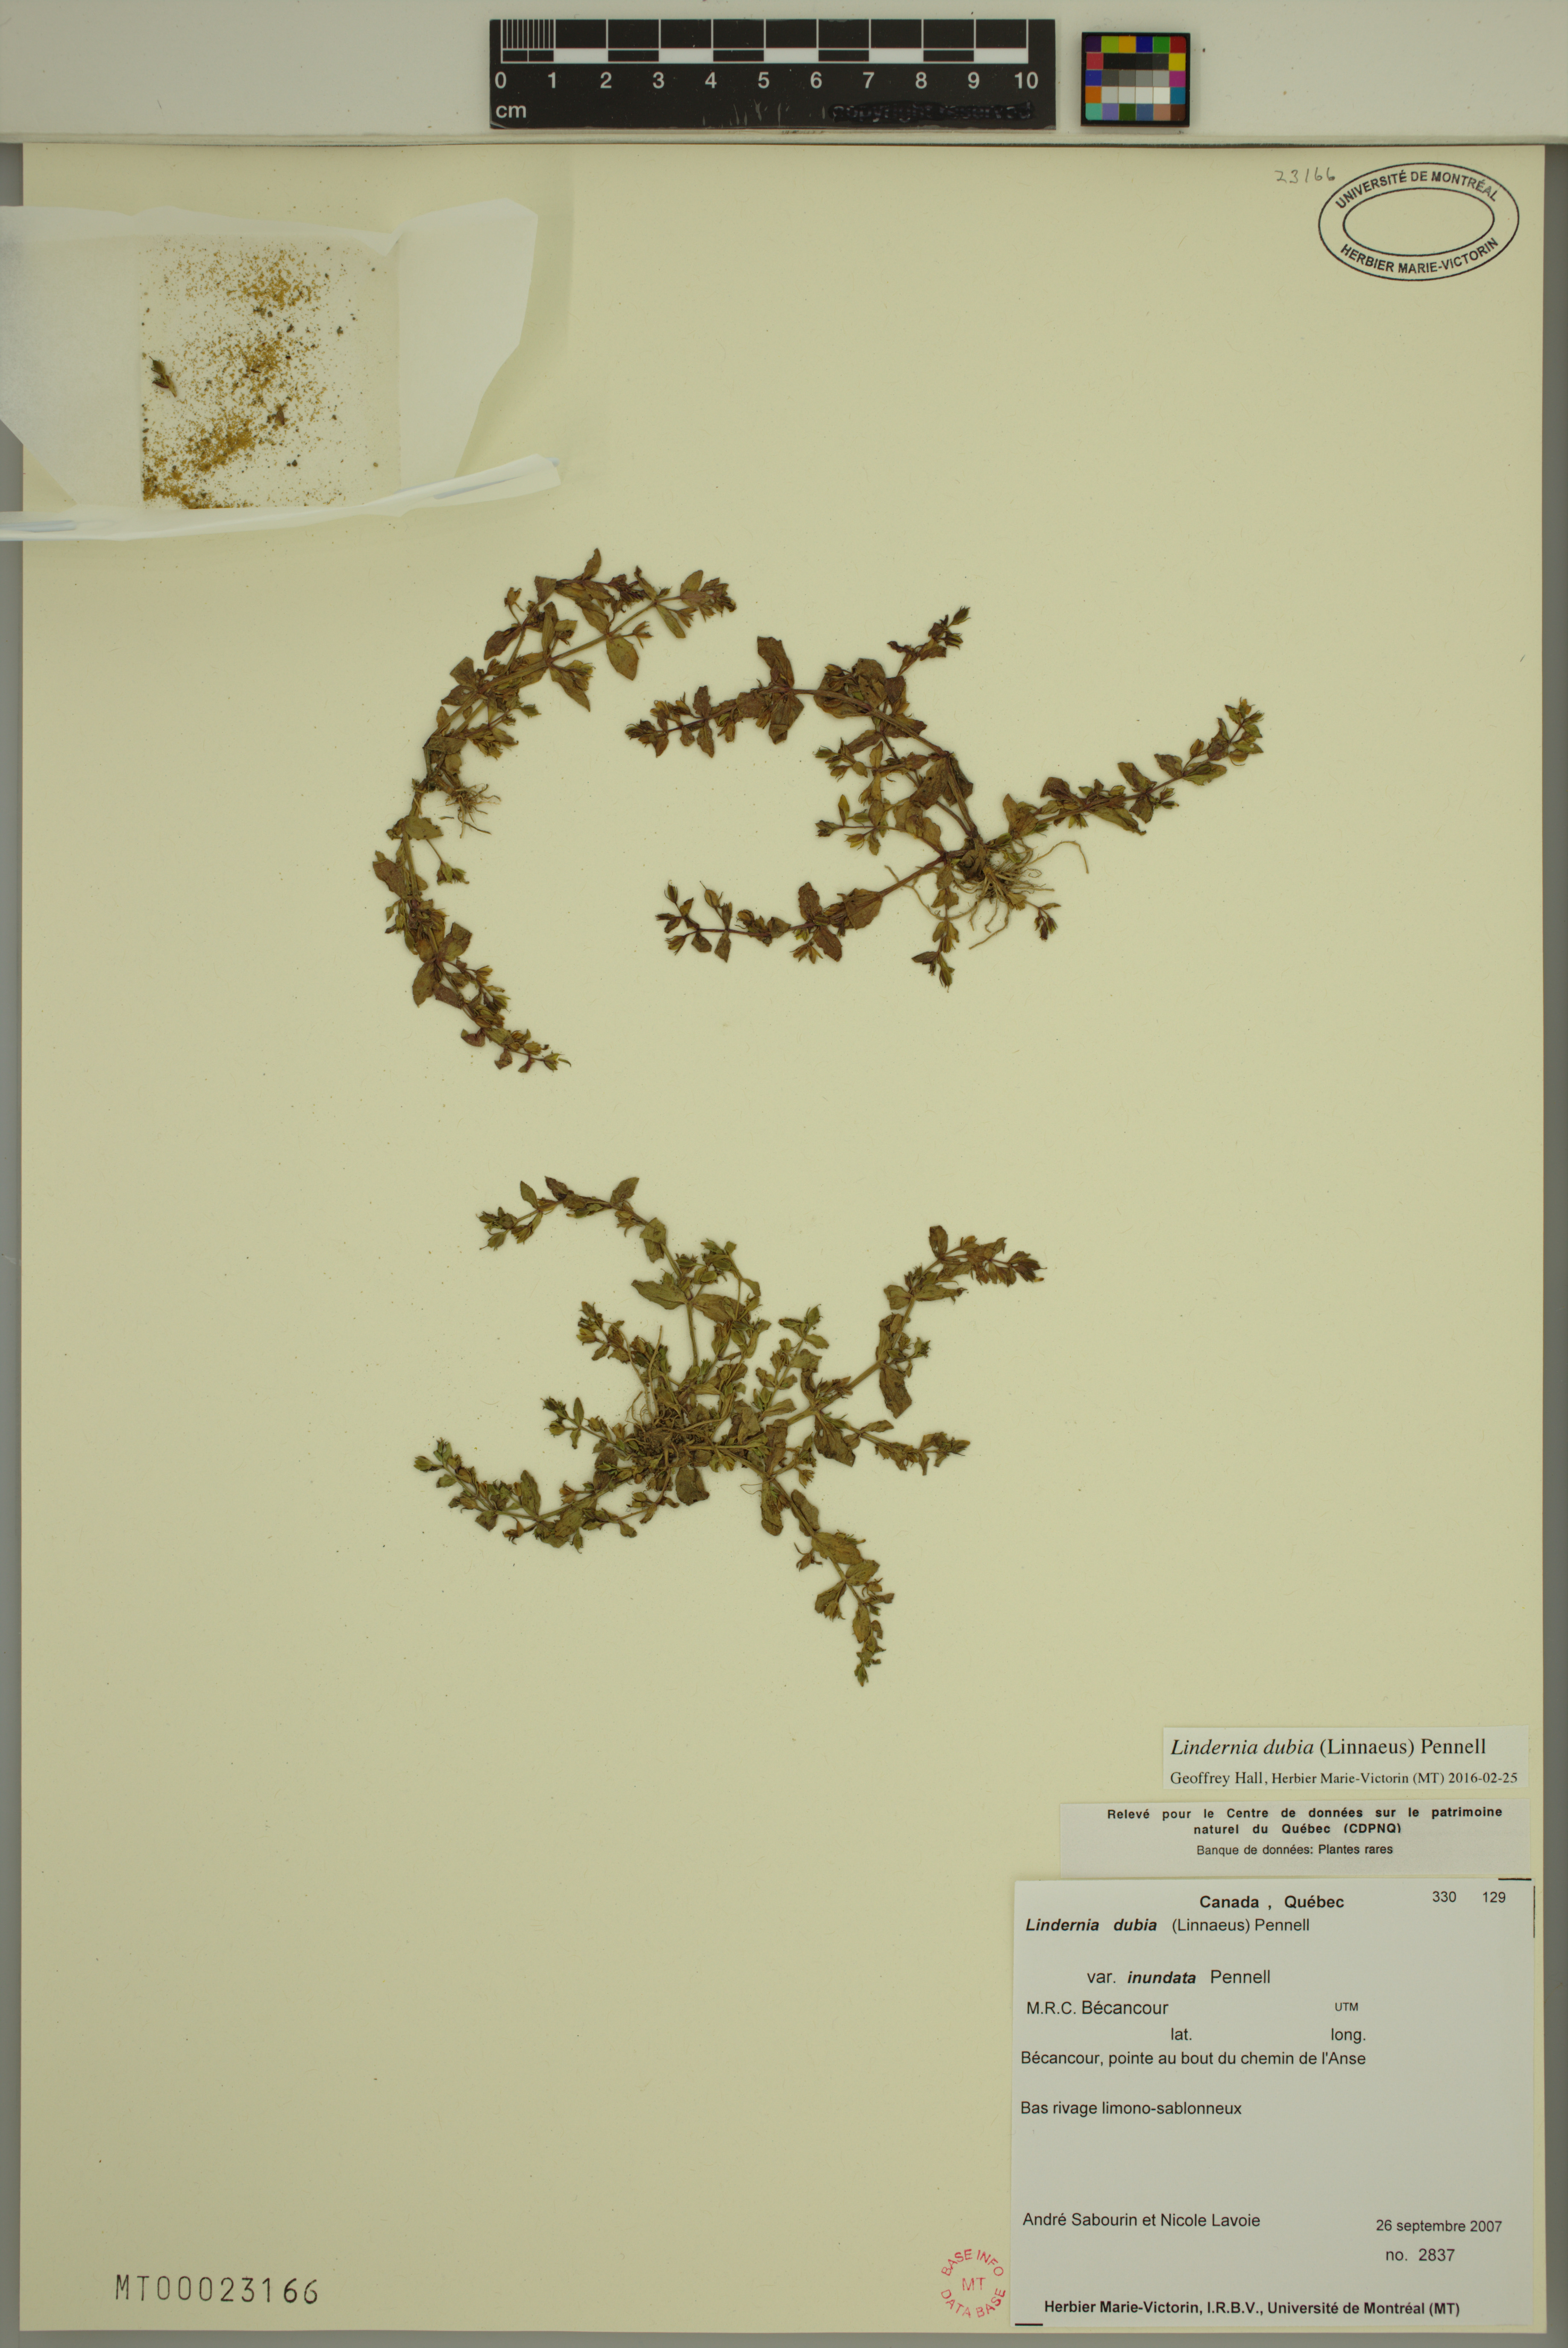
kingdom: Plantae
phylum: Tracheophyta
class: Magnoliopsida
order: Lamiales
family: Linderniaceae
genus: Lindernia
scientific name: Lindernia dubia
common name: Annual false pimpernel
